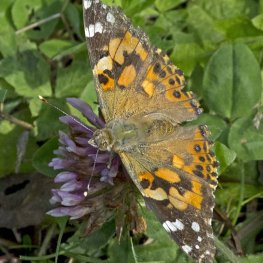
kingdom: Animalia
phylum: Arthropoda
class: Insecta
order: Lepidoptera
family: Nymphalidae
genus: Vanessa
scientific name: Vanessa cardui
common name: Painted Lady
